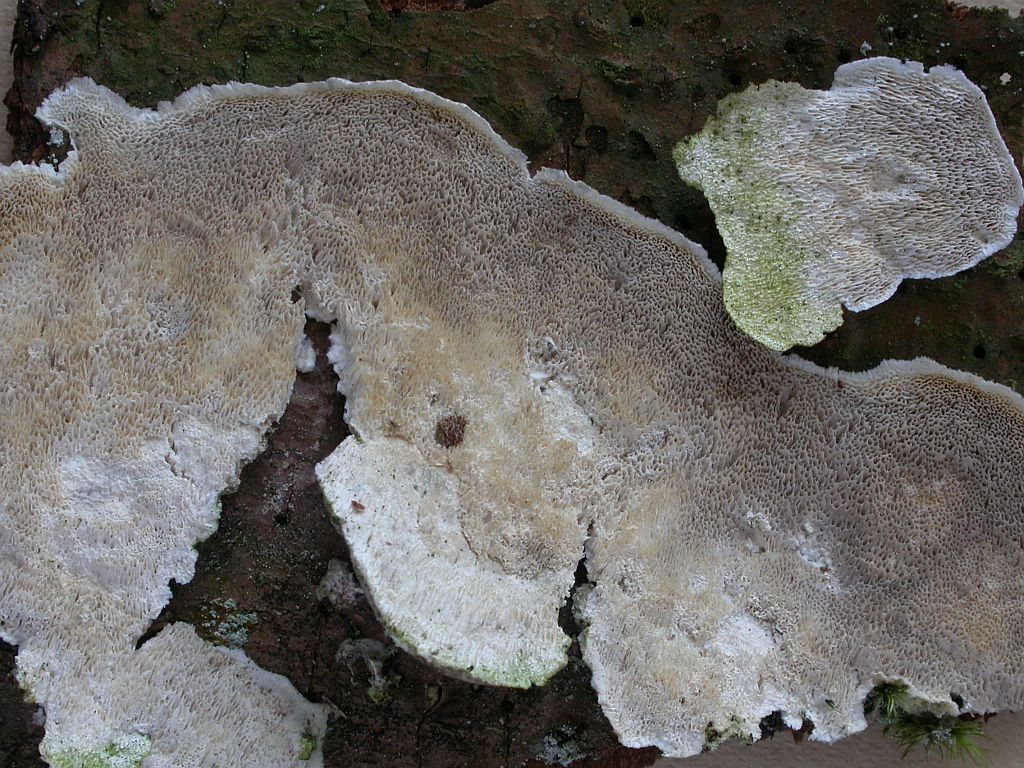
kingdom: Fungi
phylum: Basidiomycota
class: Agaricomycetes
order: Polyporales
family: Gelatoporiaceae
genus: Cinereomyces
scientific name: Cinereomyces lindbladii
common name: almindelig gråporesvamp
